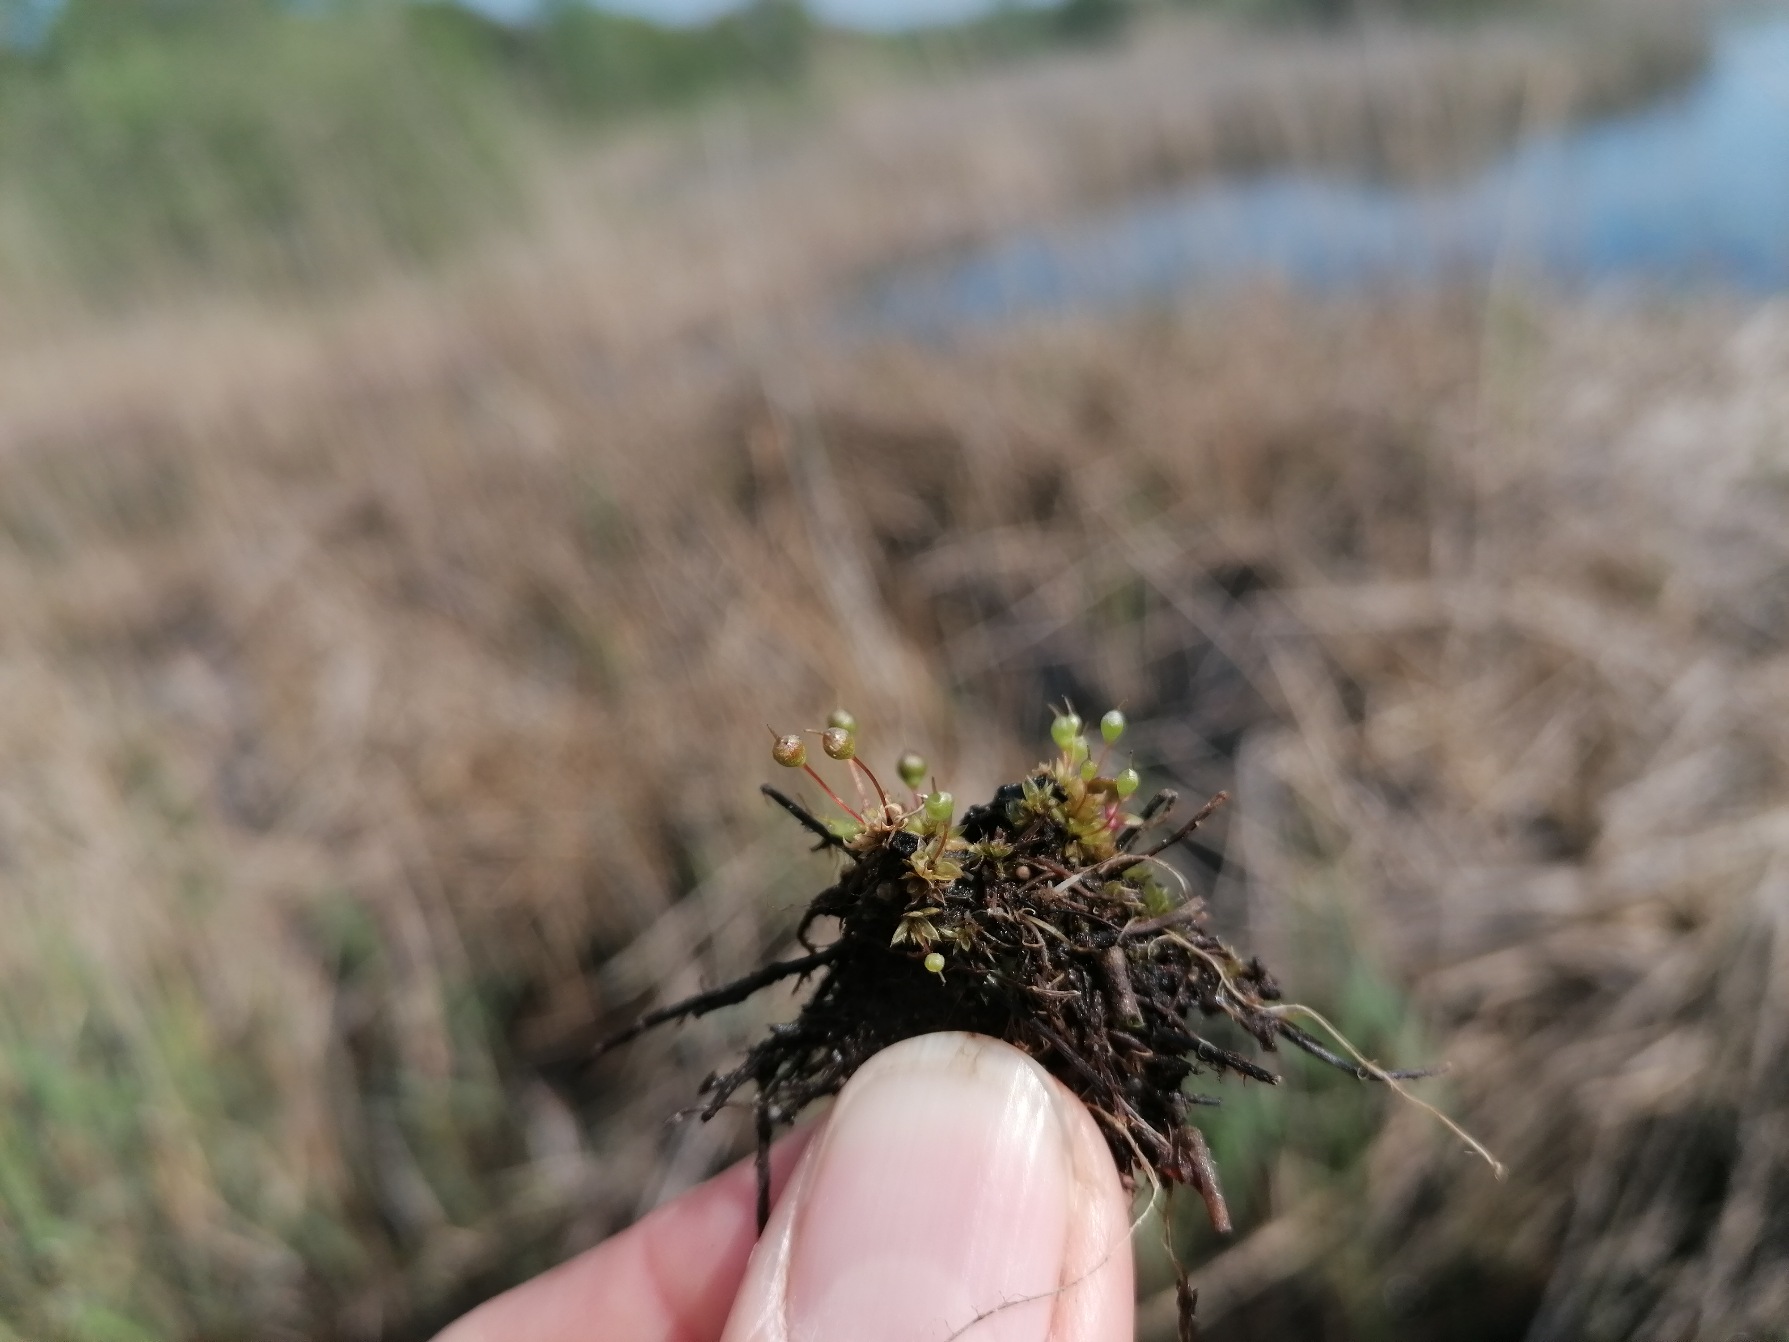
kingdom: Plantae
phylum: Bryophyta
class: Bryopsida
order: Funariales
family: Funariaceae
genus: Physcomitrium
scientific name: Physcomitrium pyriforme
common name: Almindelig pærekapsel
